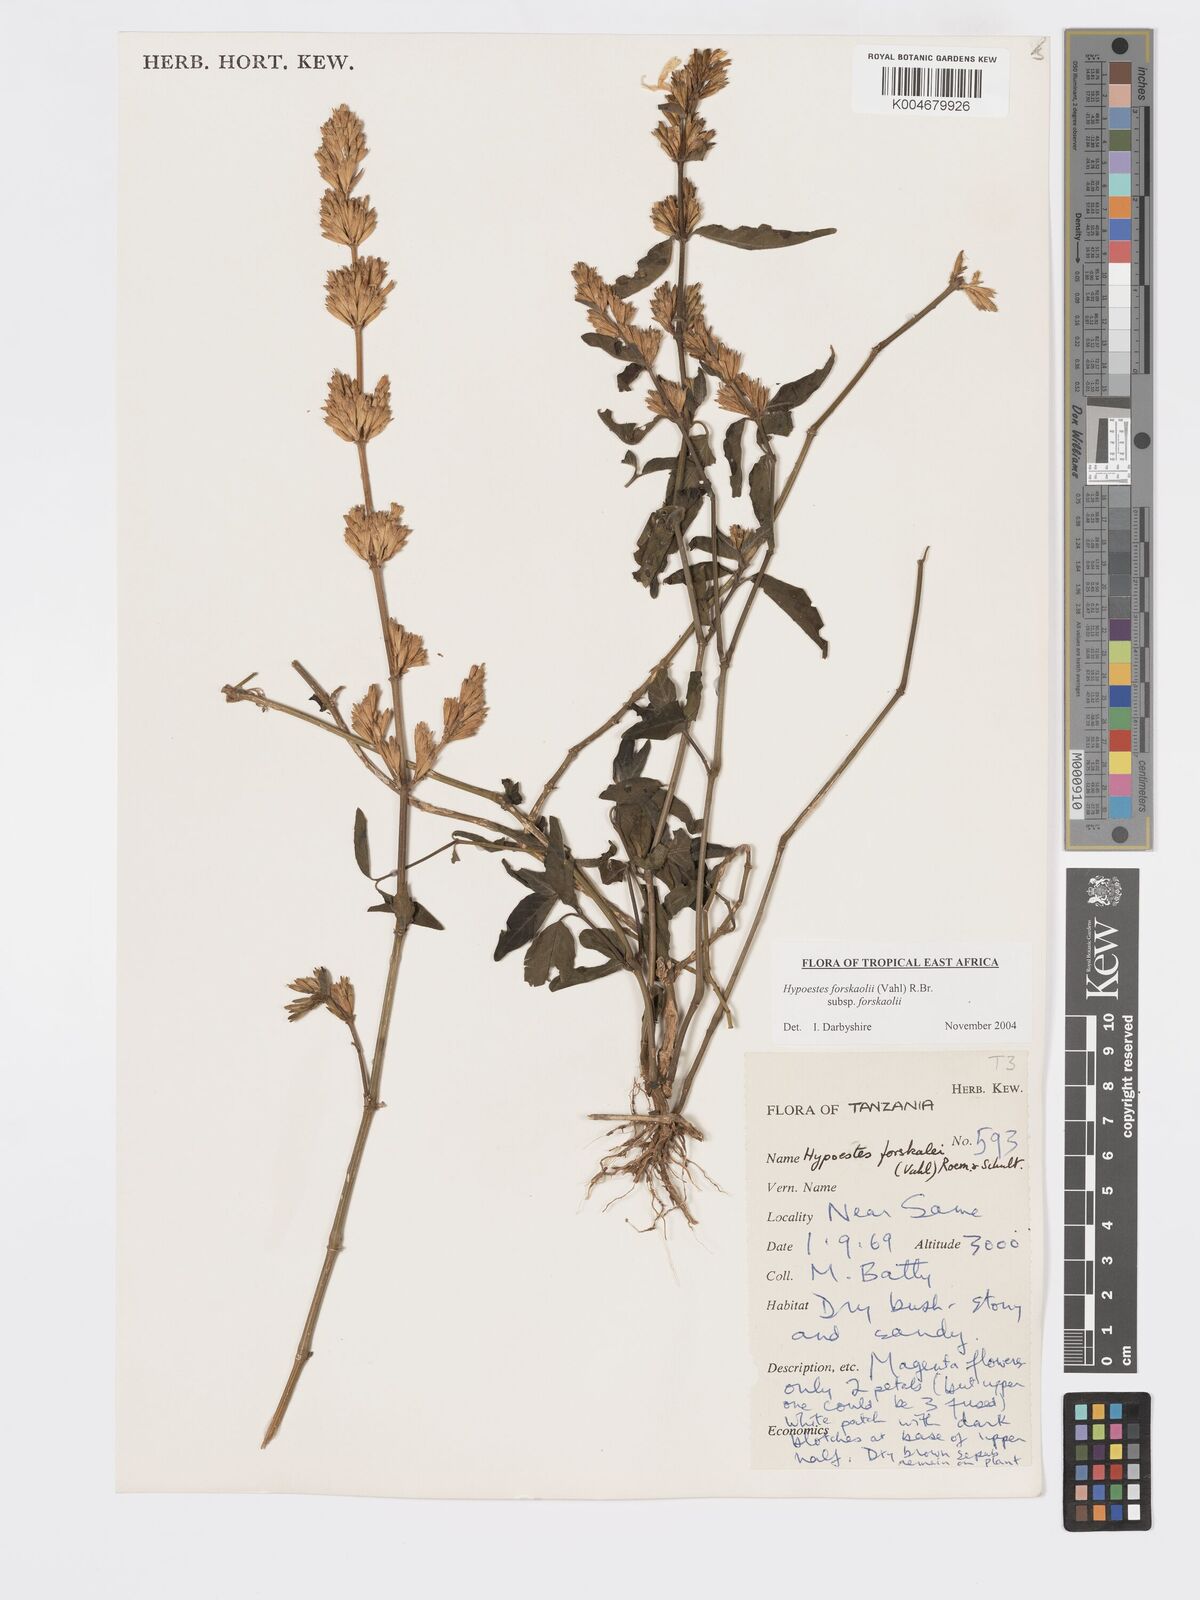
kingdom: Plantae
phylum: Tracheophyta
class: Magnoliopsida
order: Lamiales
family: Acanthaceae
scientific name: Acanthaceae
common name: Acanthaceae
